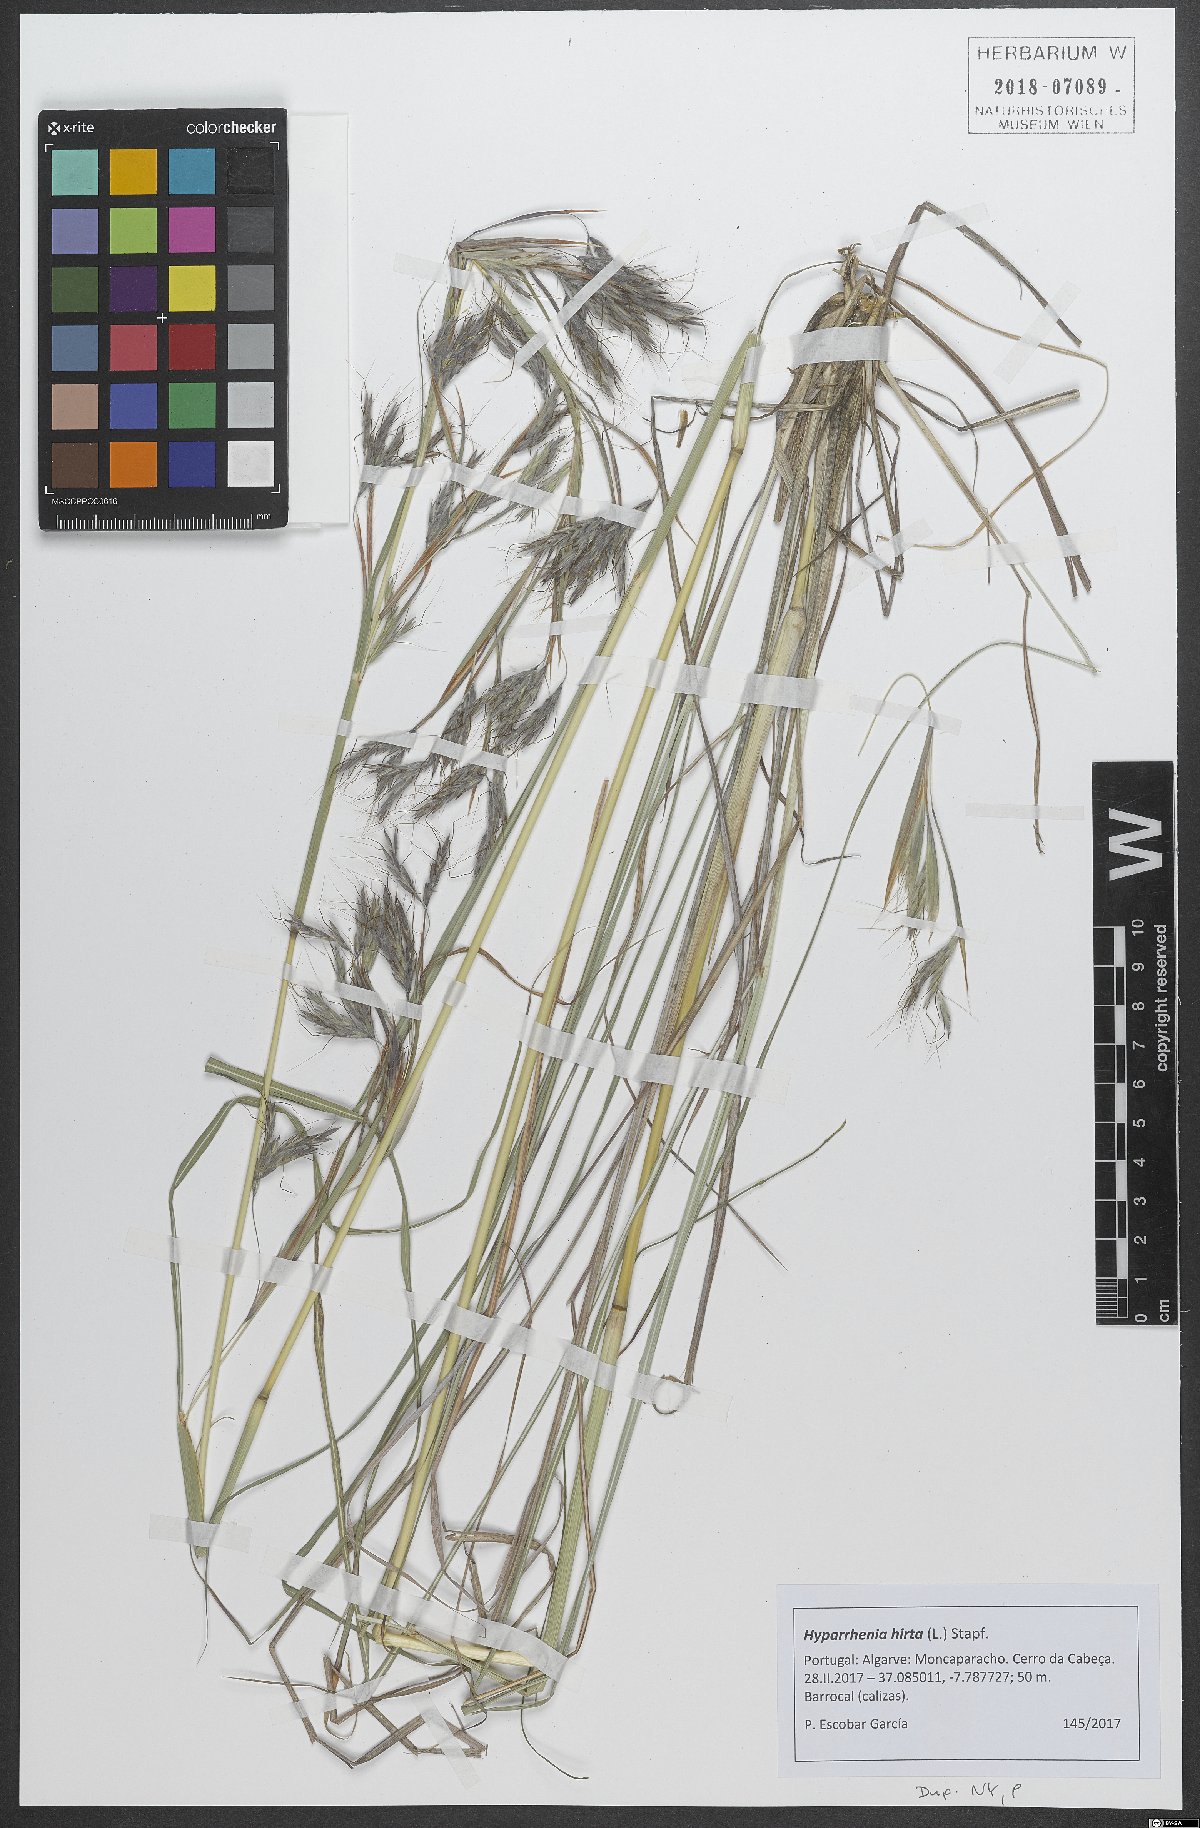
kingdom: Plantae
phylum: Tracheophyta
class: Liliopsida
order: Poales
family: Poaceae
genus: Hyparrhenia
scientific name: Hyparrhenia hirta
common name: Thatching grass
